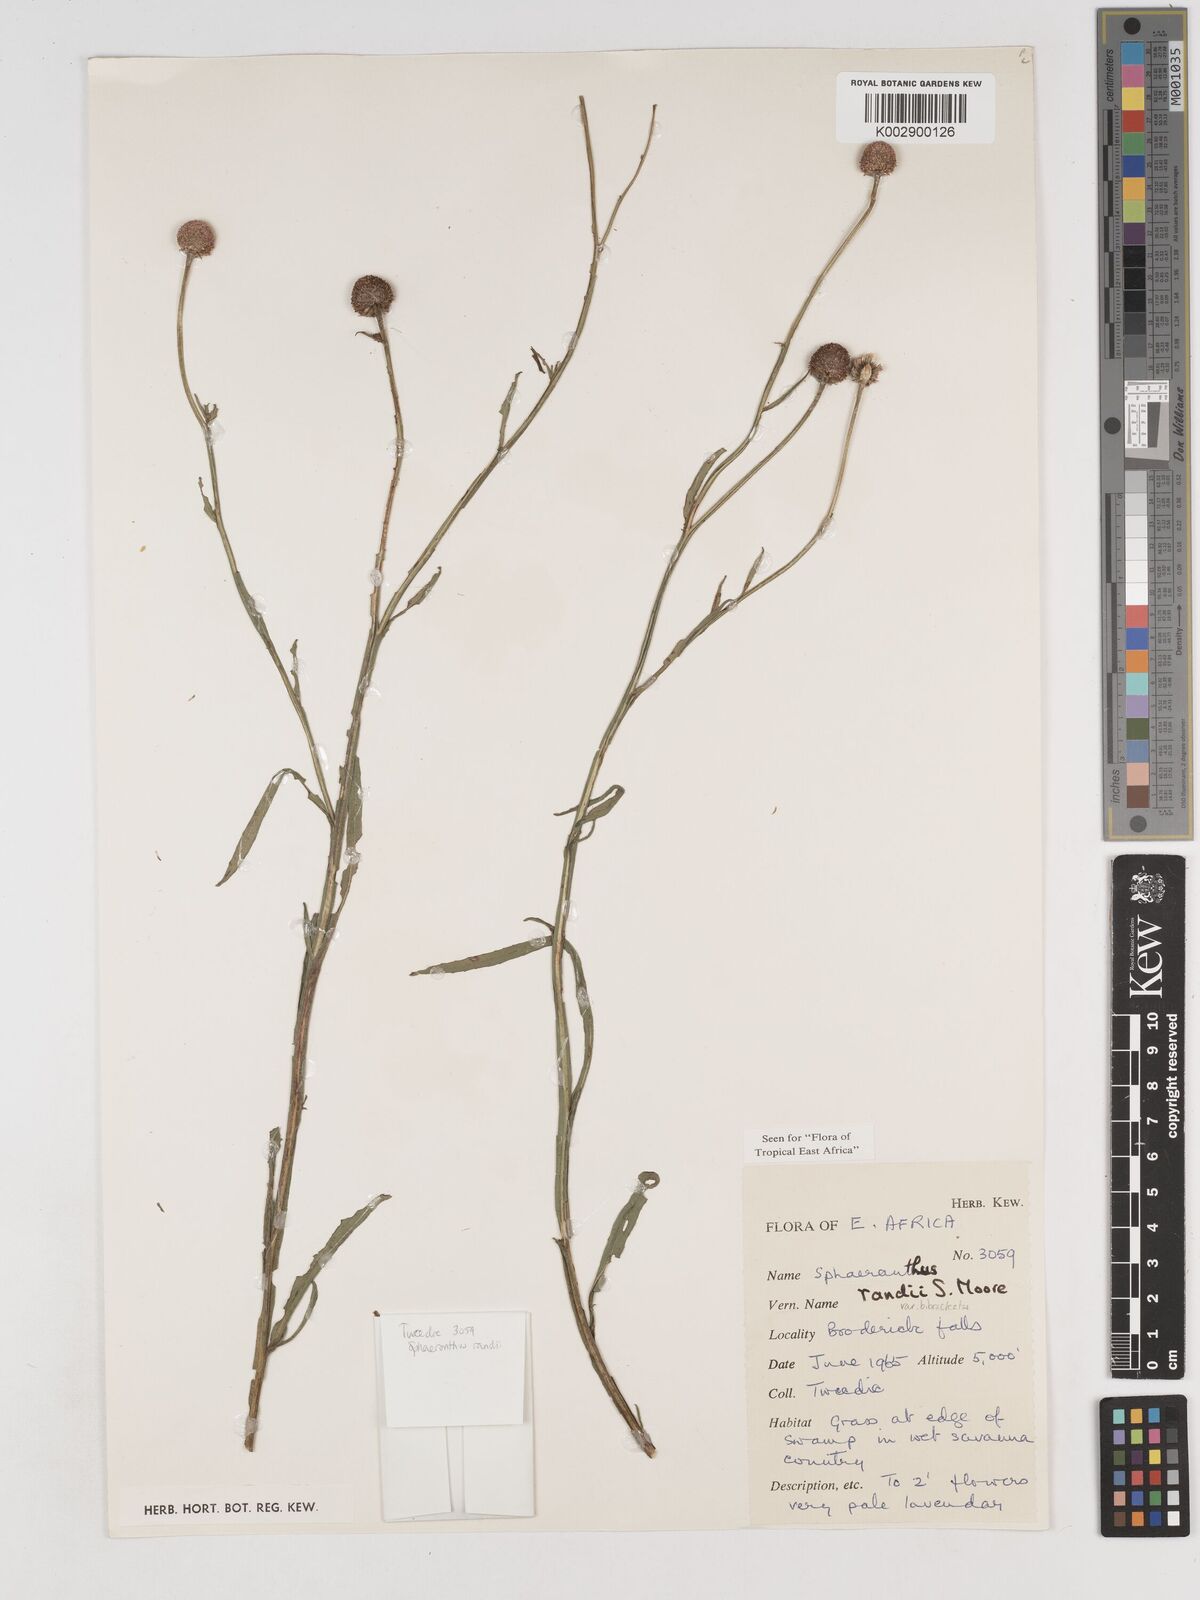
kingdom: Plantae
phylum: Tracheophyta
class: Magnoliopsida
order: Asterales
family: Asteraceae
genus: Sphaeranthus
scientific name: Sphaeranthus randii
